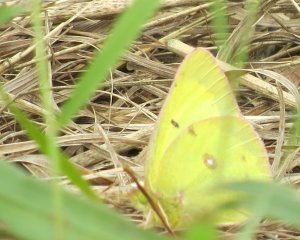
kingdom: Animalia
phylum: Arthropoda
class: Insecta
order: Lepidoptera
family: Pieridae
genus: Colias
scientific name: Colias philodice
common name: Clouded Sulphur
